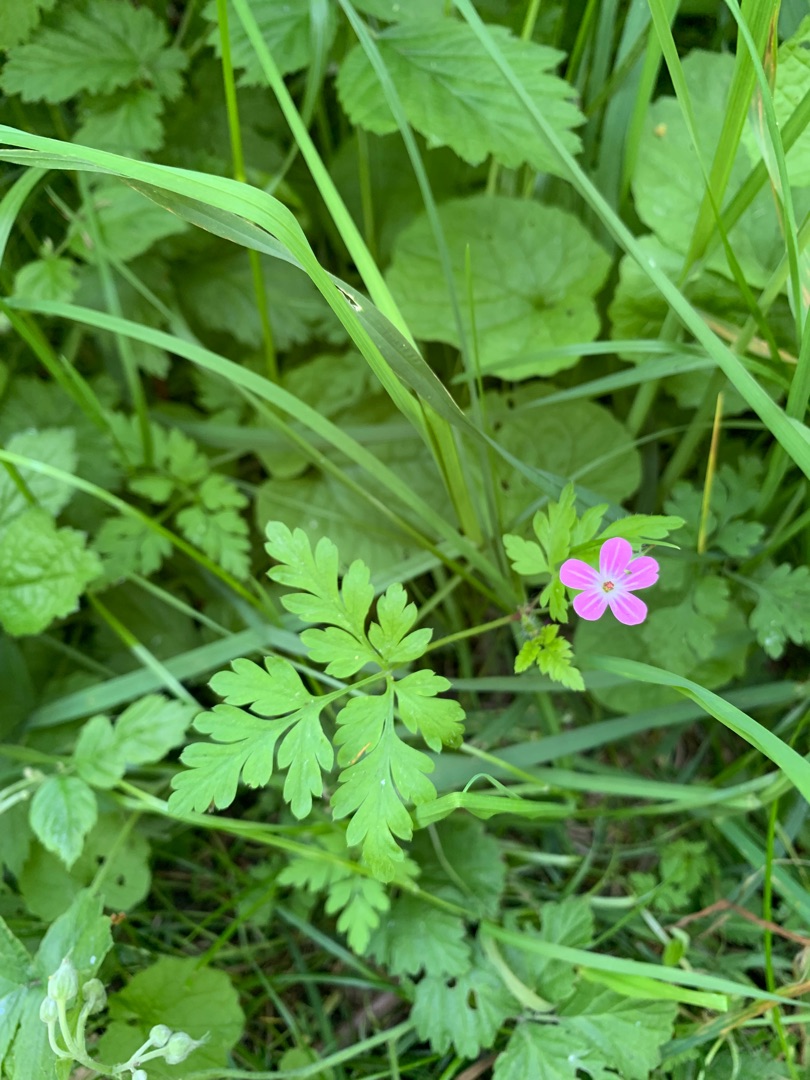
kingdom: Plantae
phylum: Tracheophyta
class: Magnoliopsida
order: Geraniales
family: Geraniaceae
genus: Geranium
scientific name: Geranium robertianum
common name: Stinkende storkenæb
